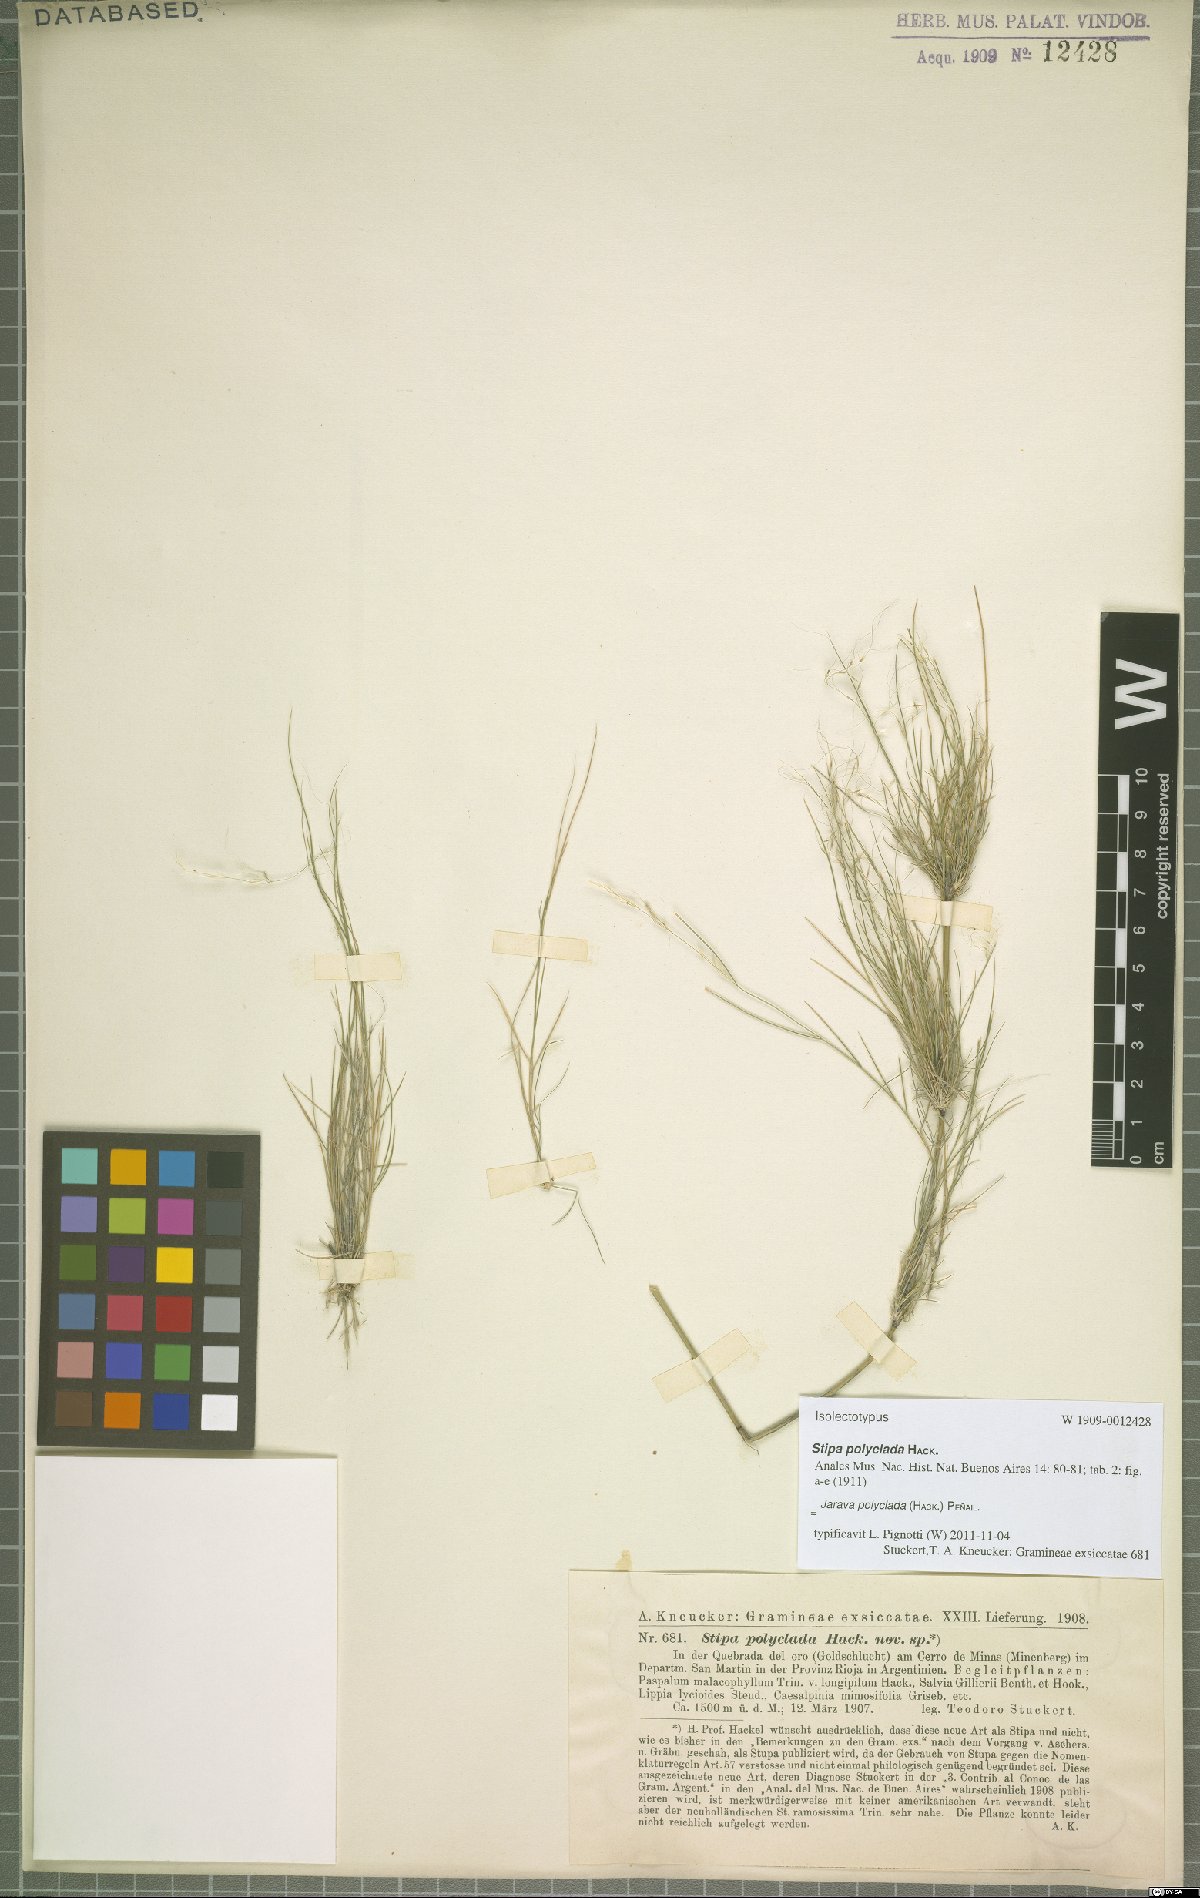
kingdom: Plantae
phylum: Tracheophyta
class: Liliopsida
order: Poales
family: Poaceae
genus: Stipa
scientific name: Stipa polyclada
